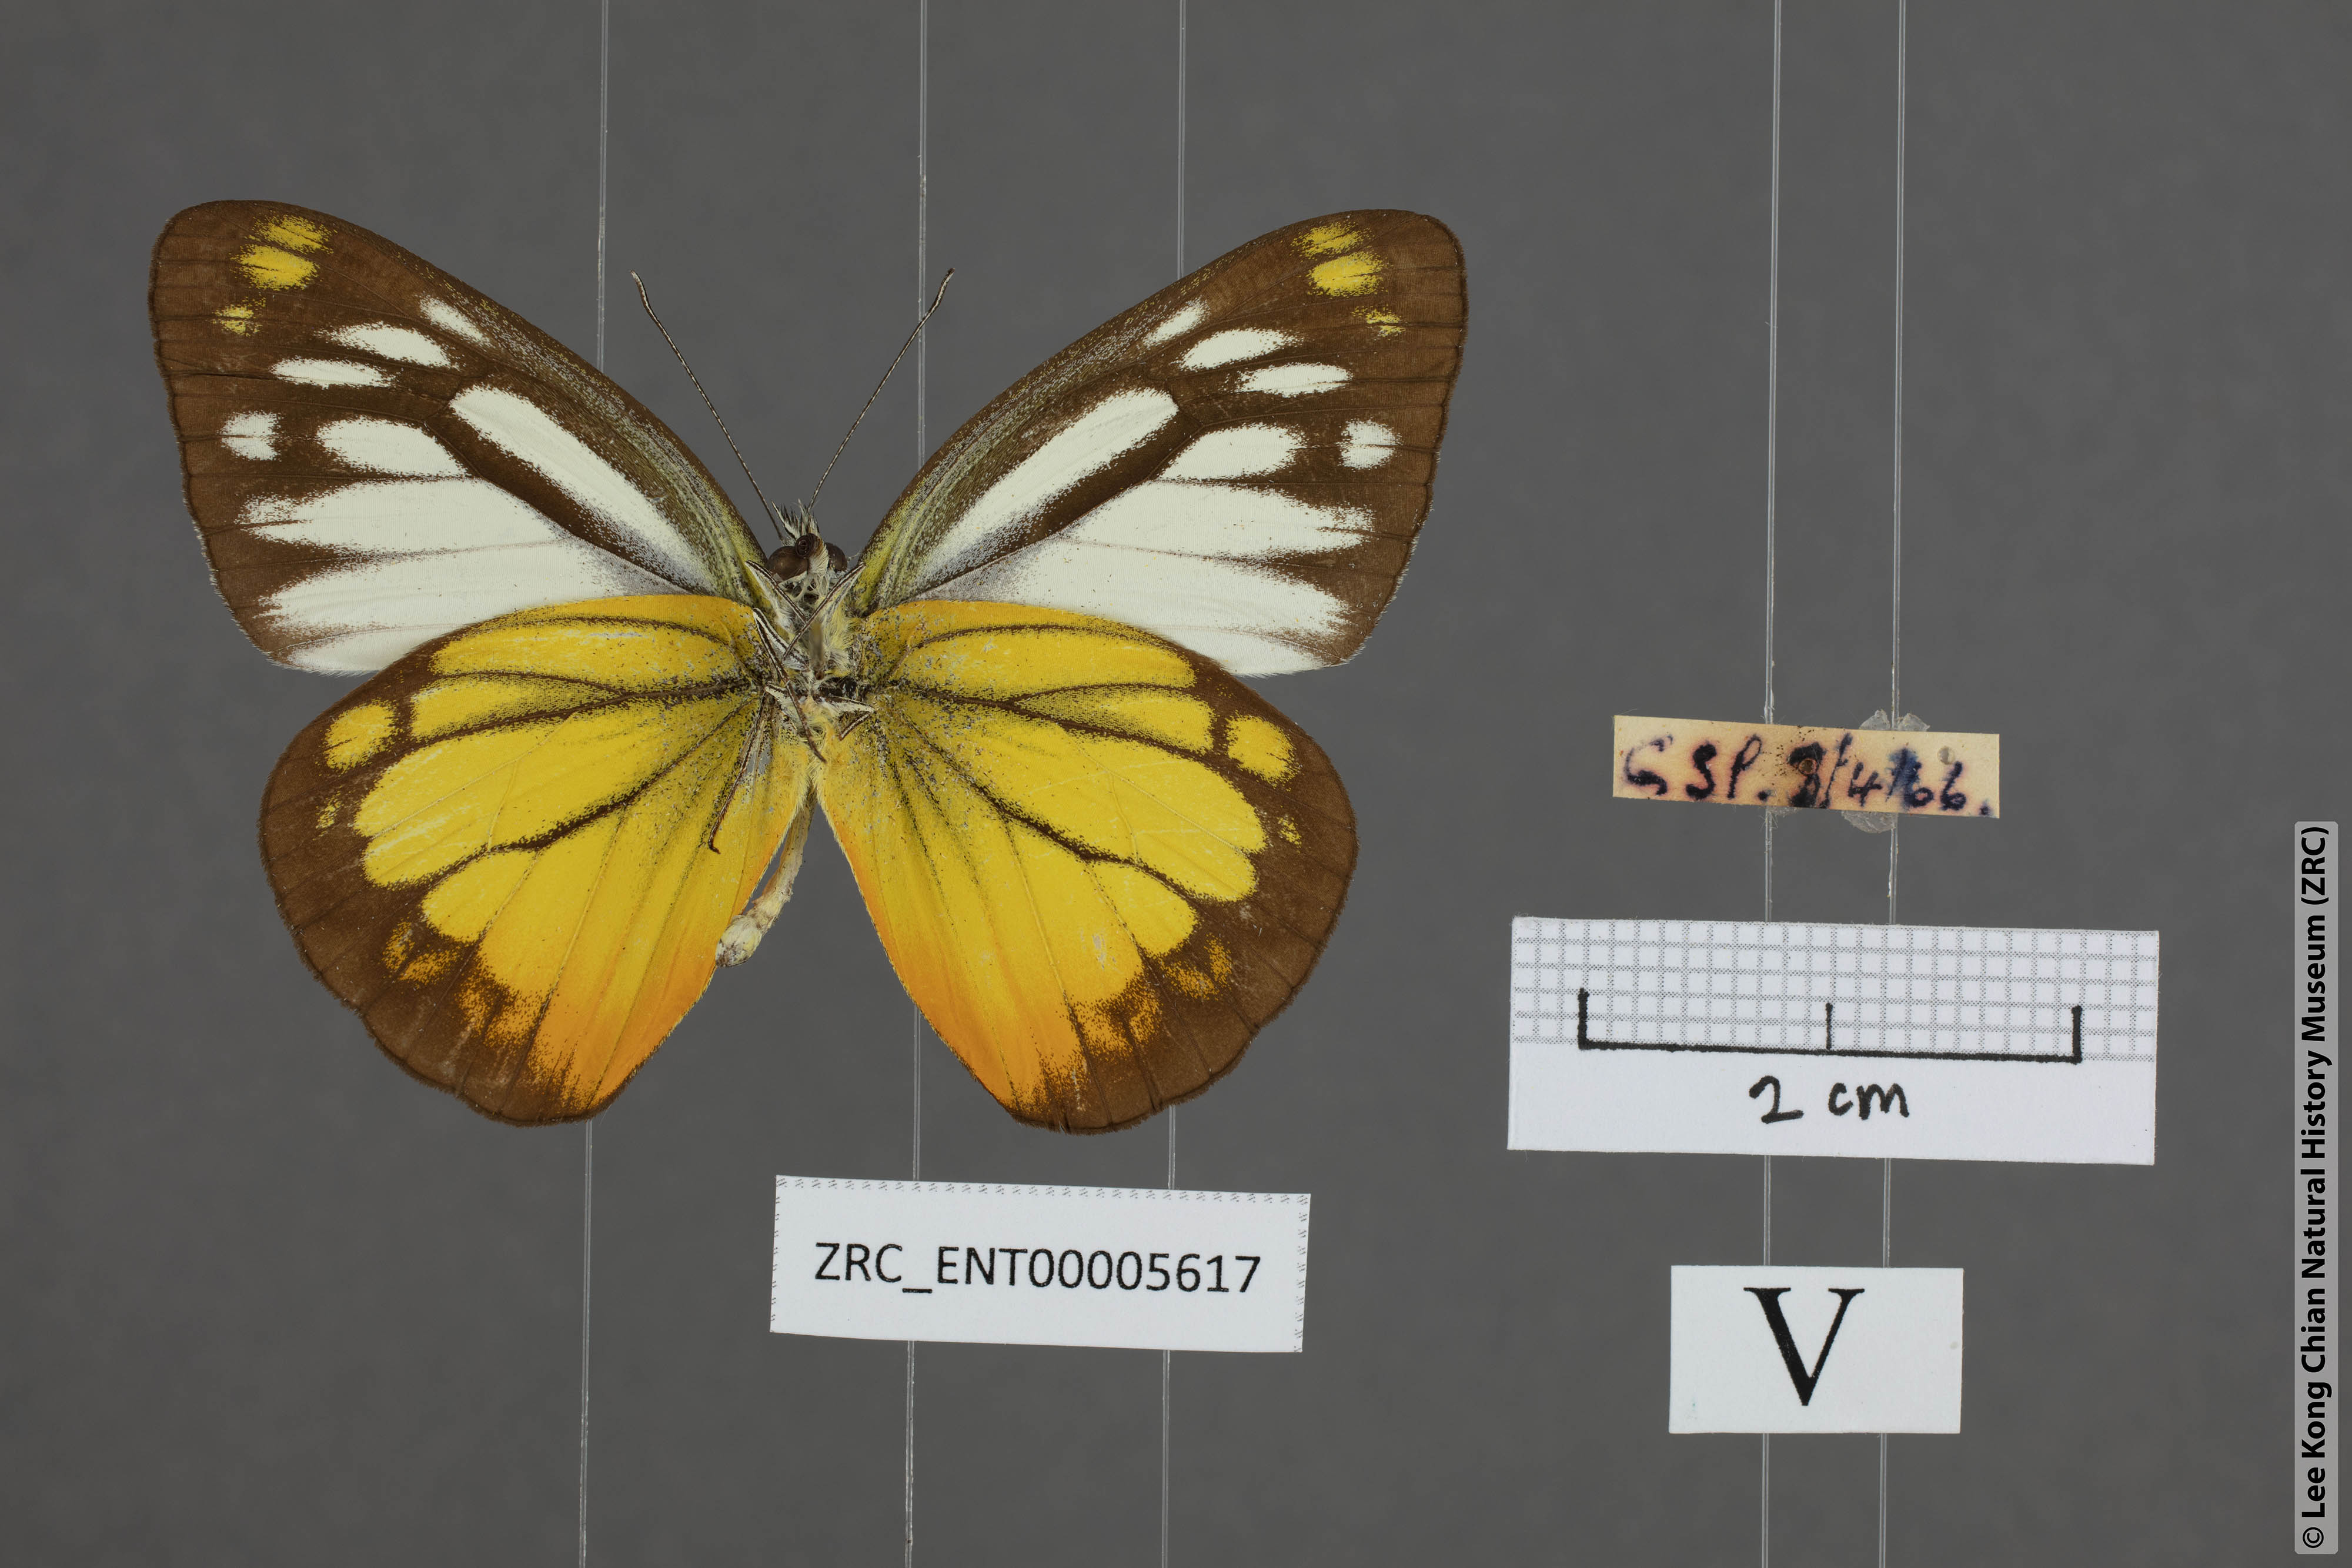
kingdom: Animalia
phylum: Arthropoda
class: Insecta
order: Lepidoptera
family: Pieridae
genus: Cepora
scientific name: Cepora iudith
